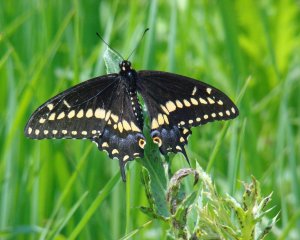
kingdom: Animalia
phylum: Arthropoda
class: Insecta
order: Lepidoptera
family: Papilionidae
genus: Papilio
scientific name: Papilio polyxenes
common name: Black Swallowtail
